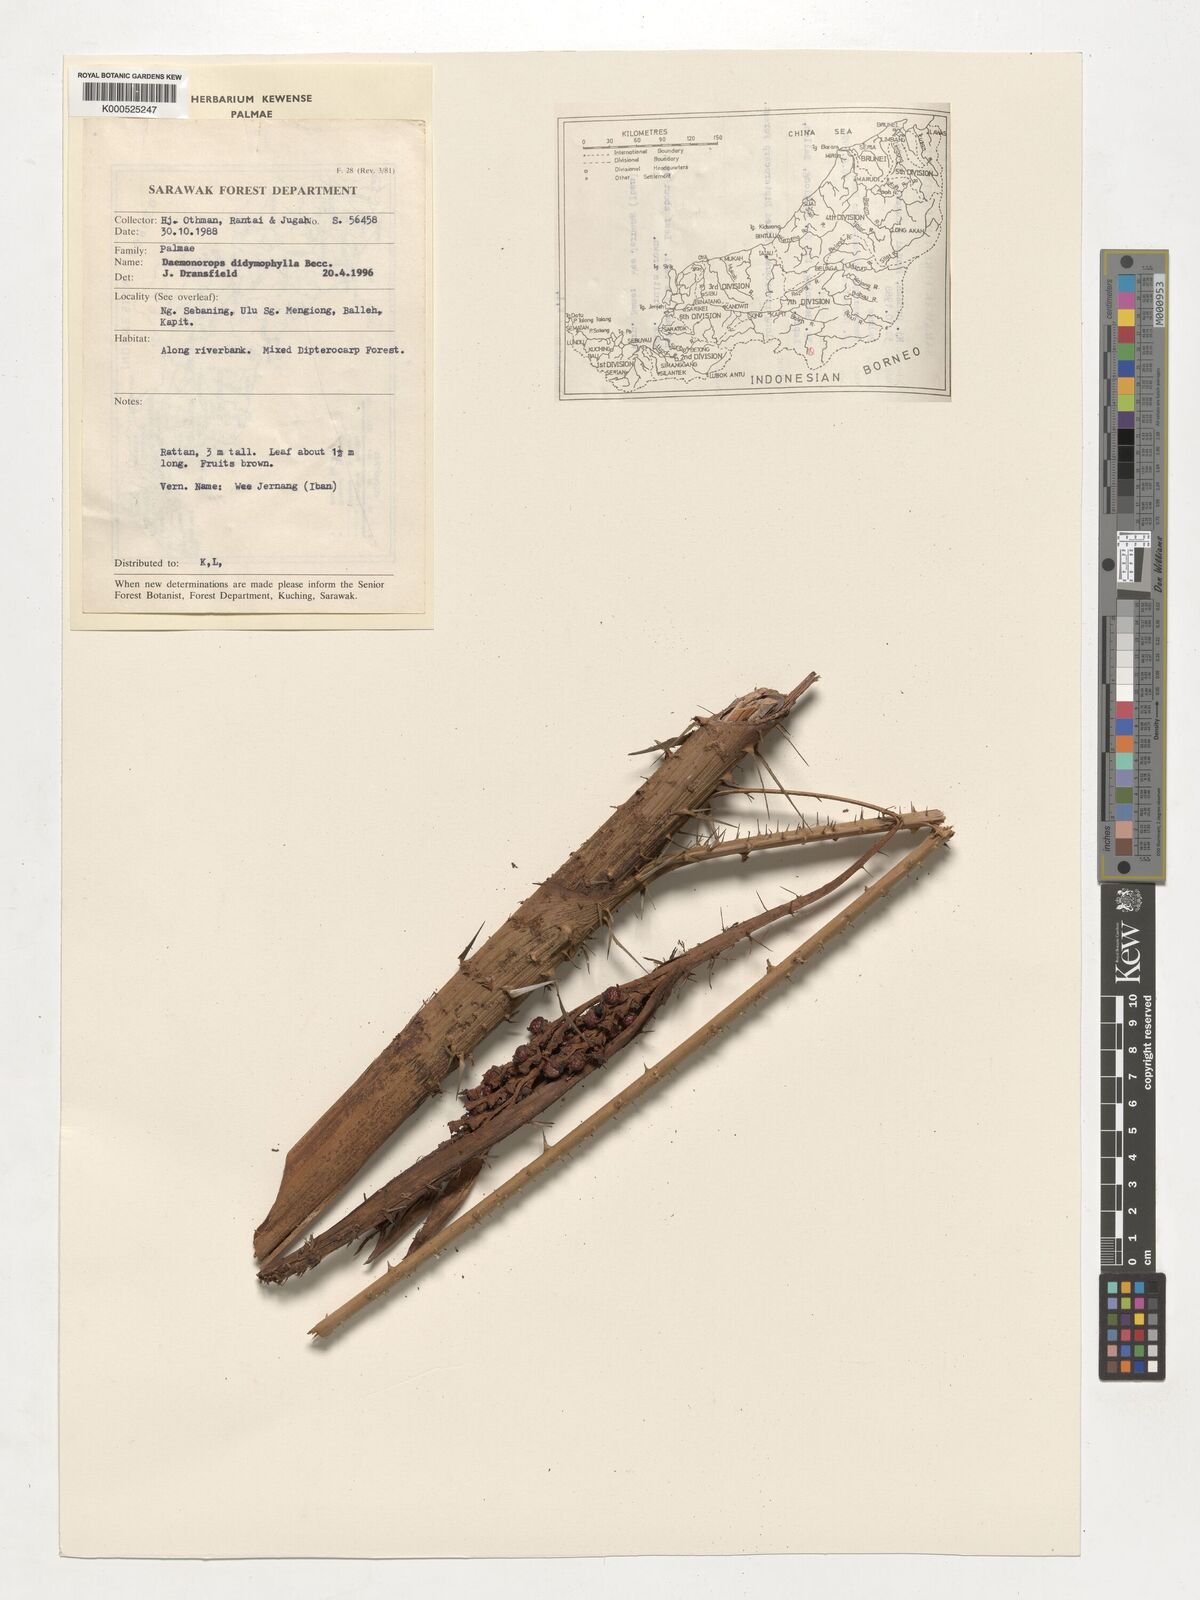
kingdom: Plantae
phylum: Tracheophyta
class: Liliopsida
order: Arecales
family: Arecaceae
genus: Calamus
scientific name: Calamus gracilipes
